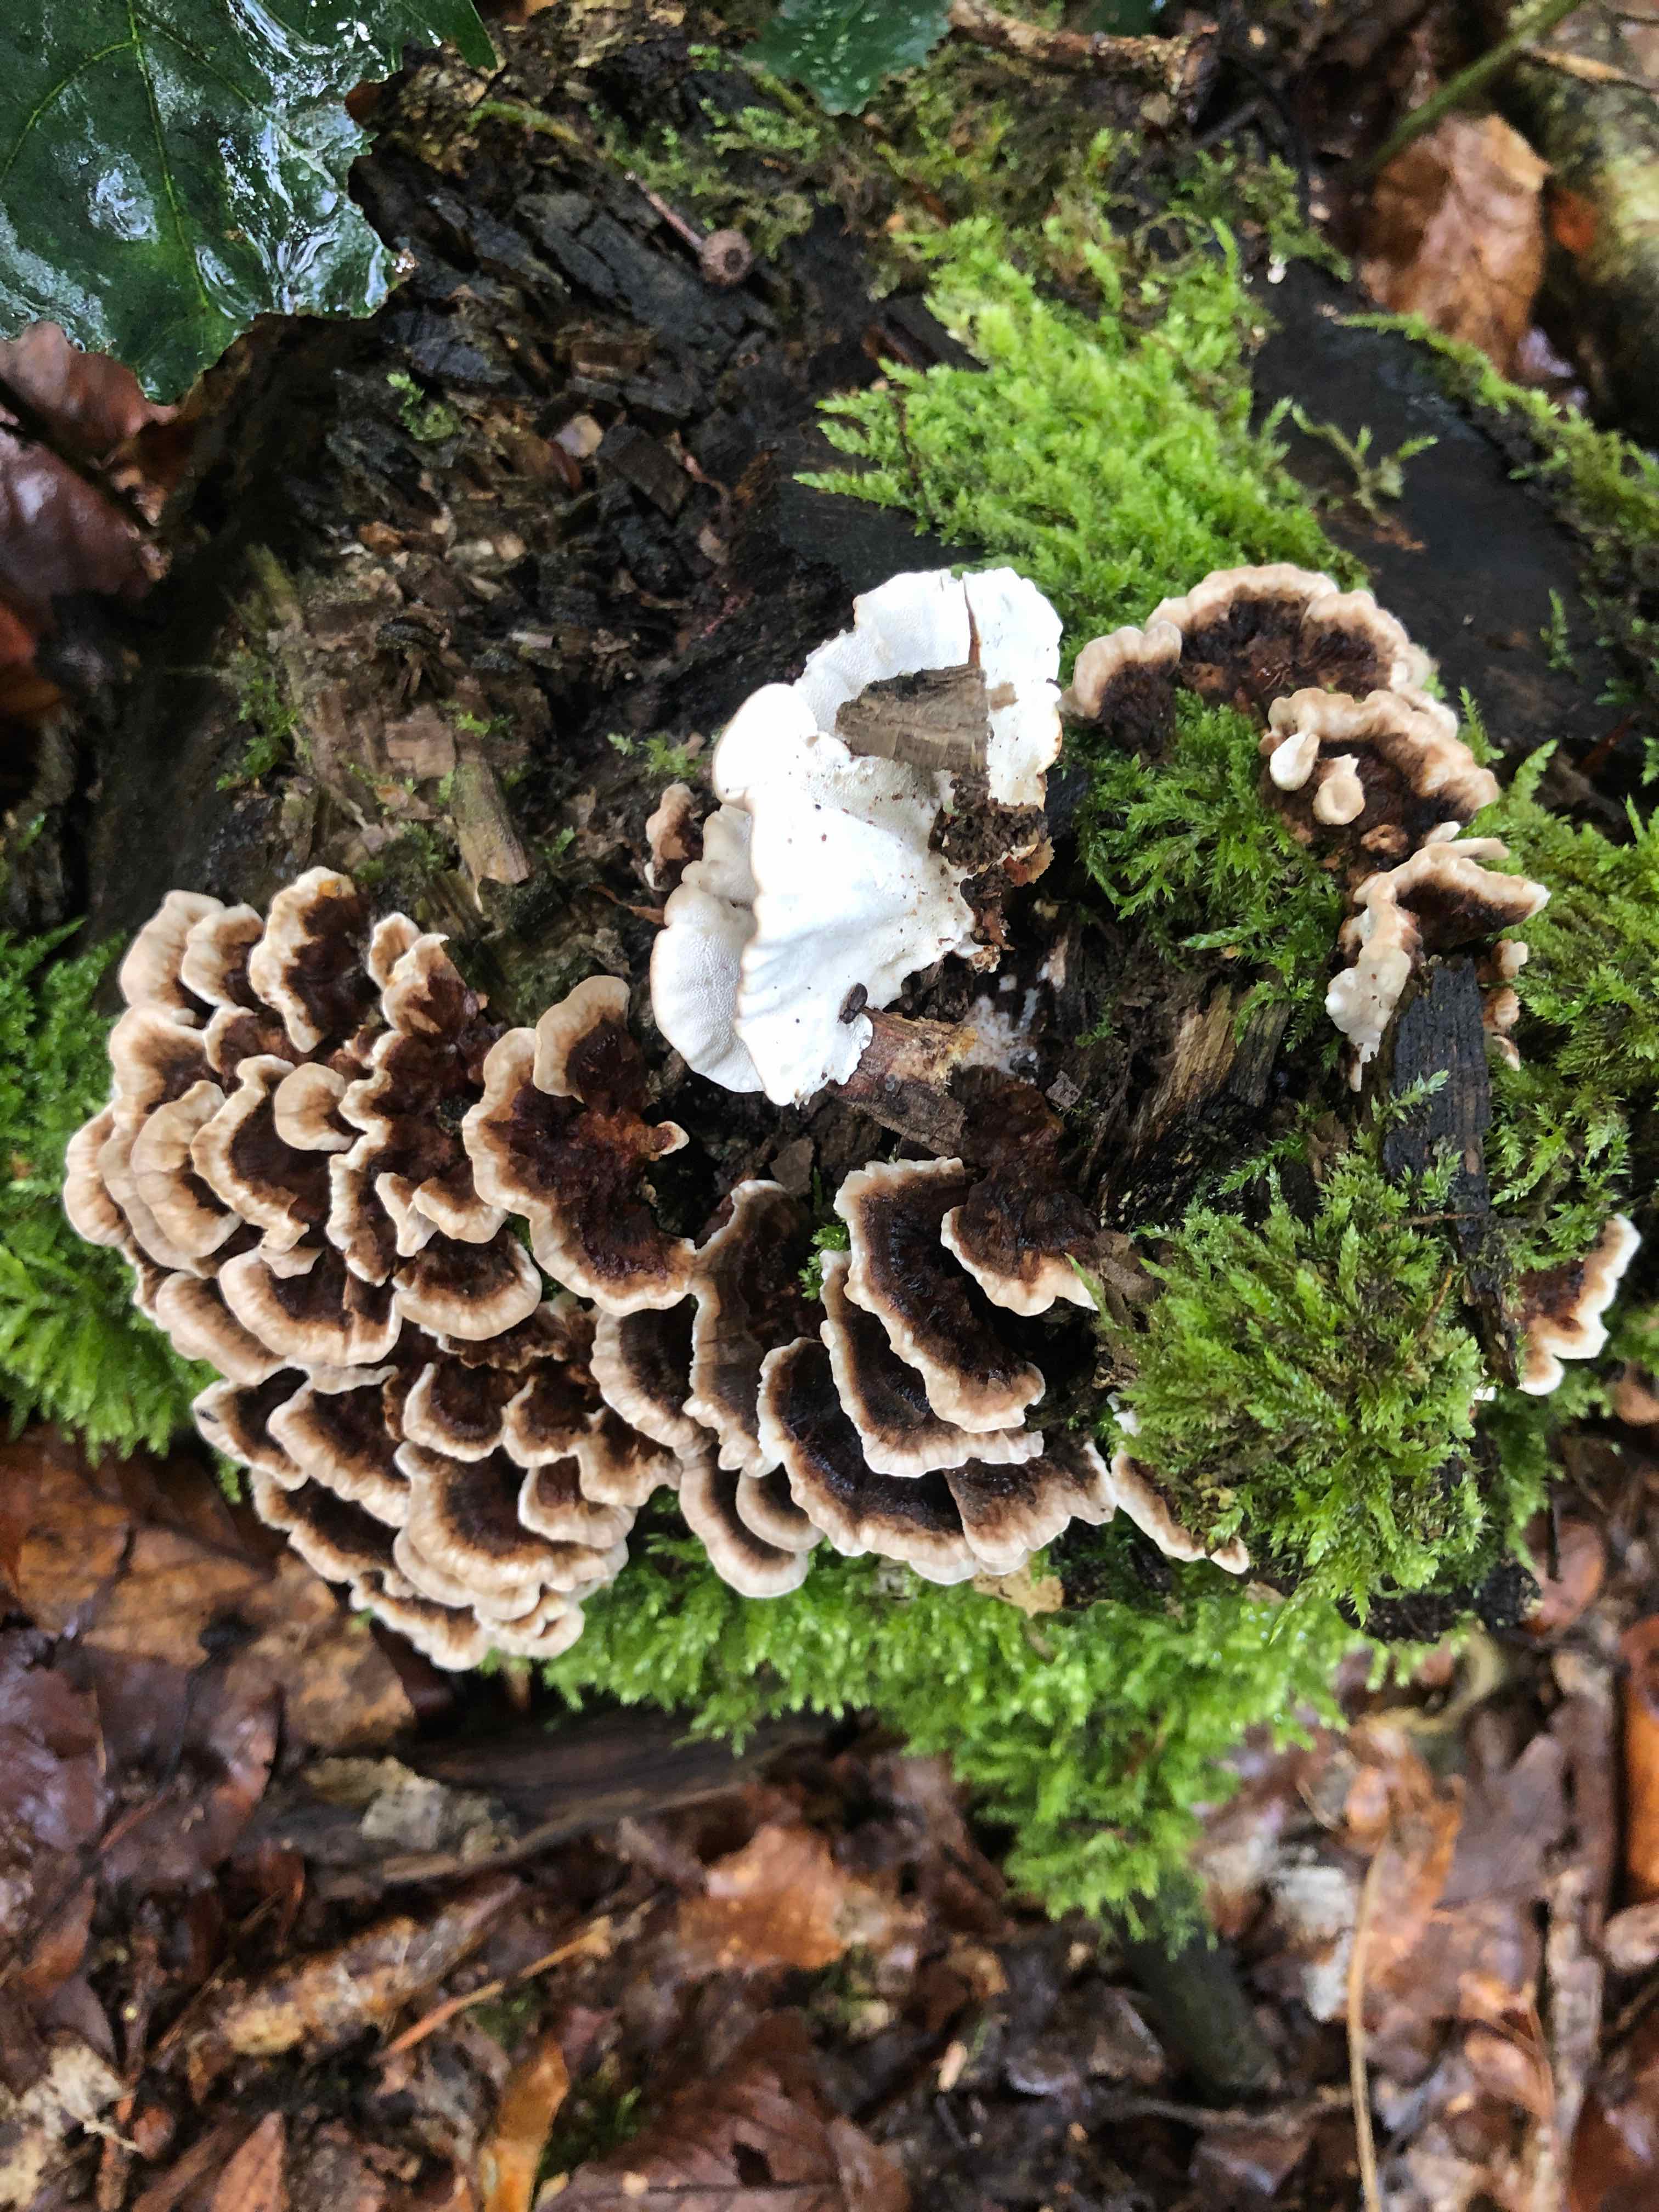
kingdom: Fungi
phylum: Basidiomycota
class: Agaricomycetes
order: Polyporales
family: Polyporaceae
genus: Trametes
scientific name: Trametes versicolor
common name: broget læderporesvamp
